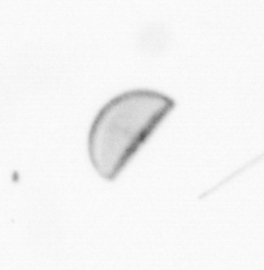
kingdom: Chromista
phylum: Ochrophyta
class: Bacillariophyceae
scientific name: Bacillariophyceae
